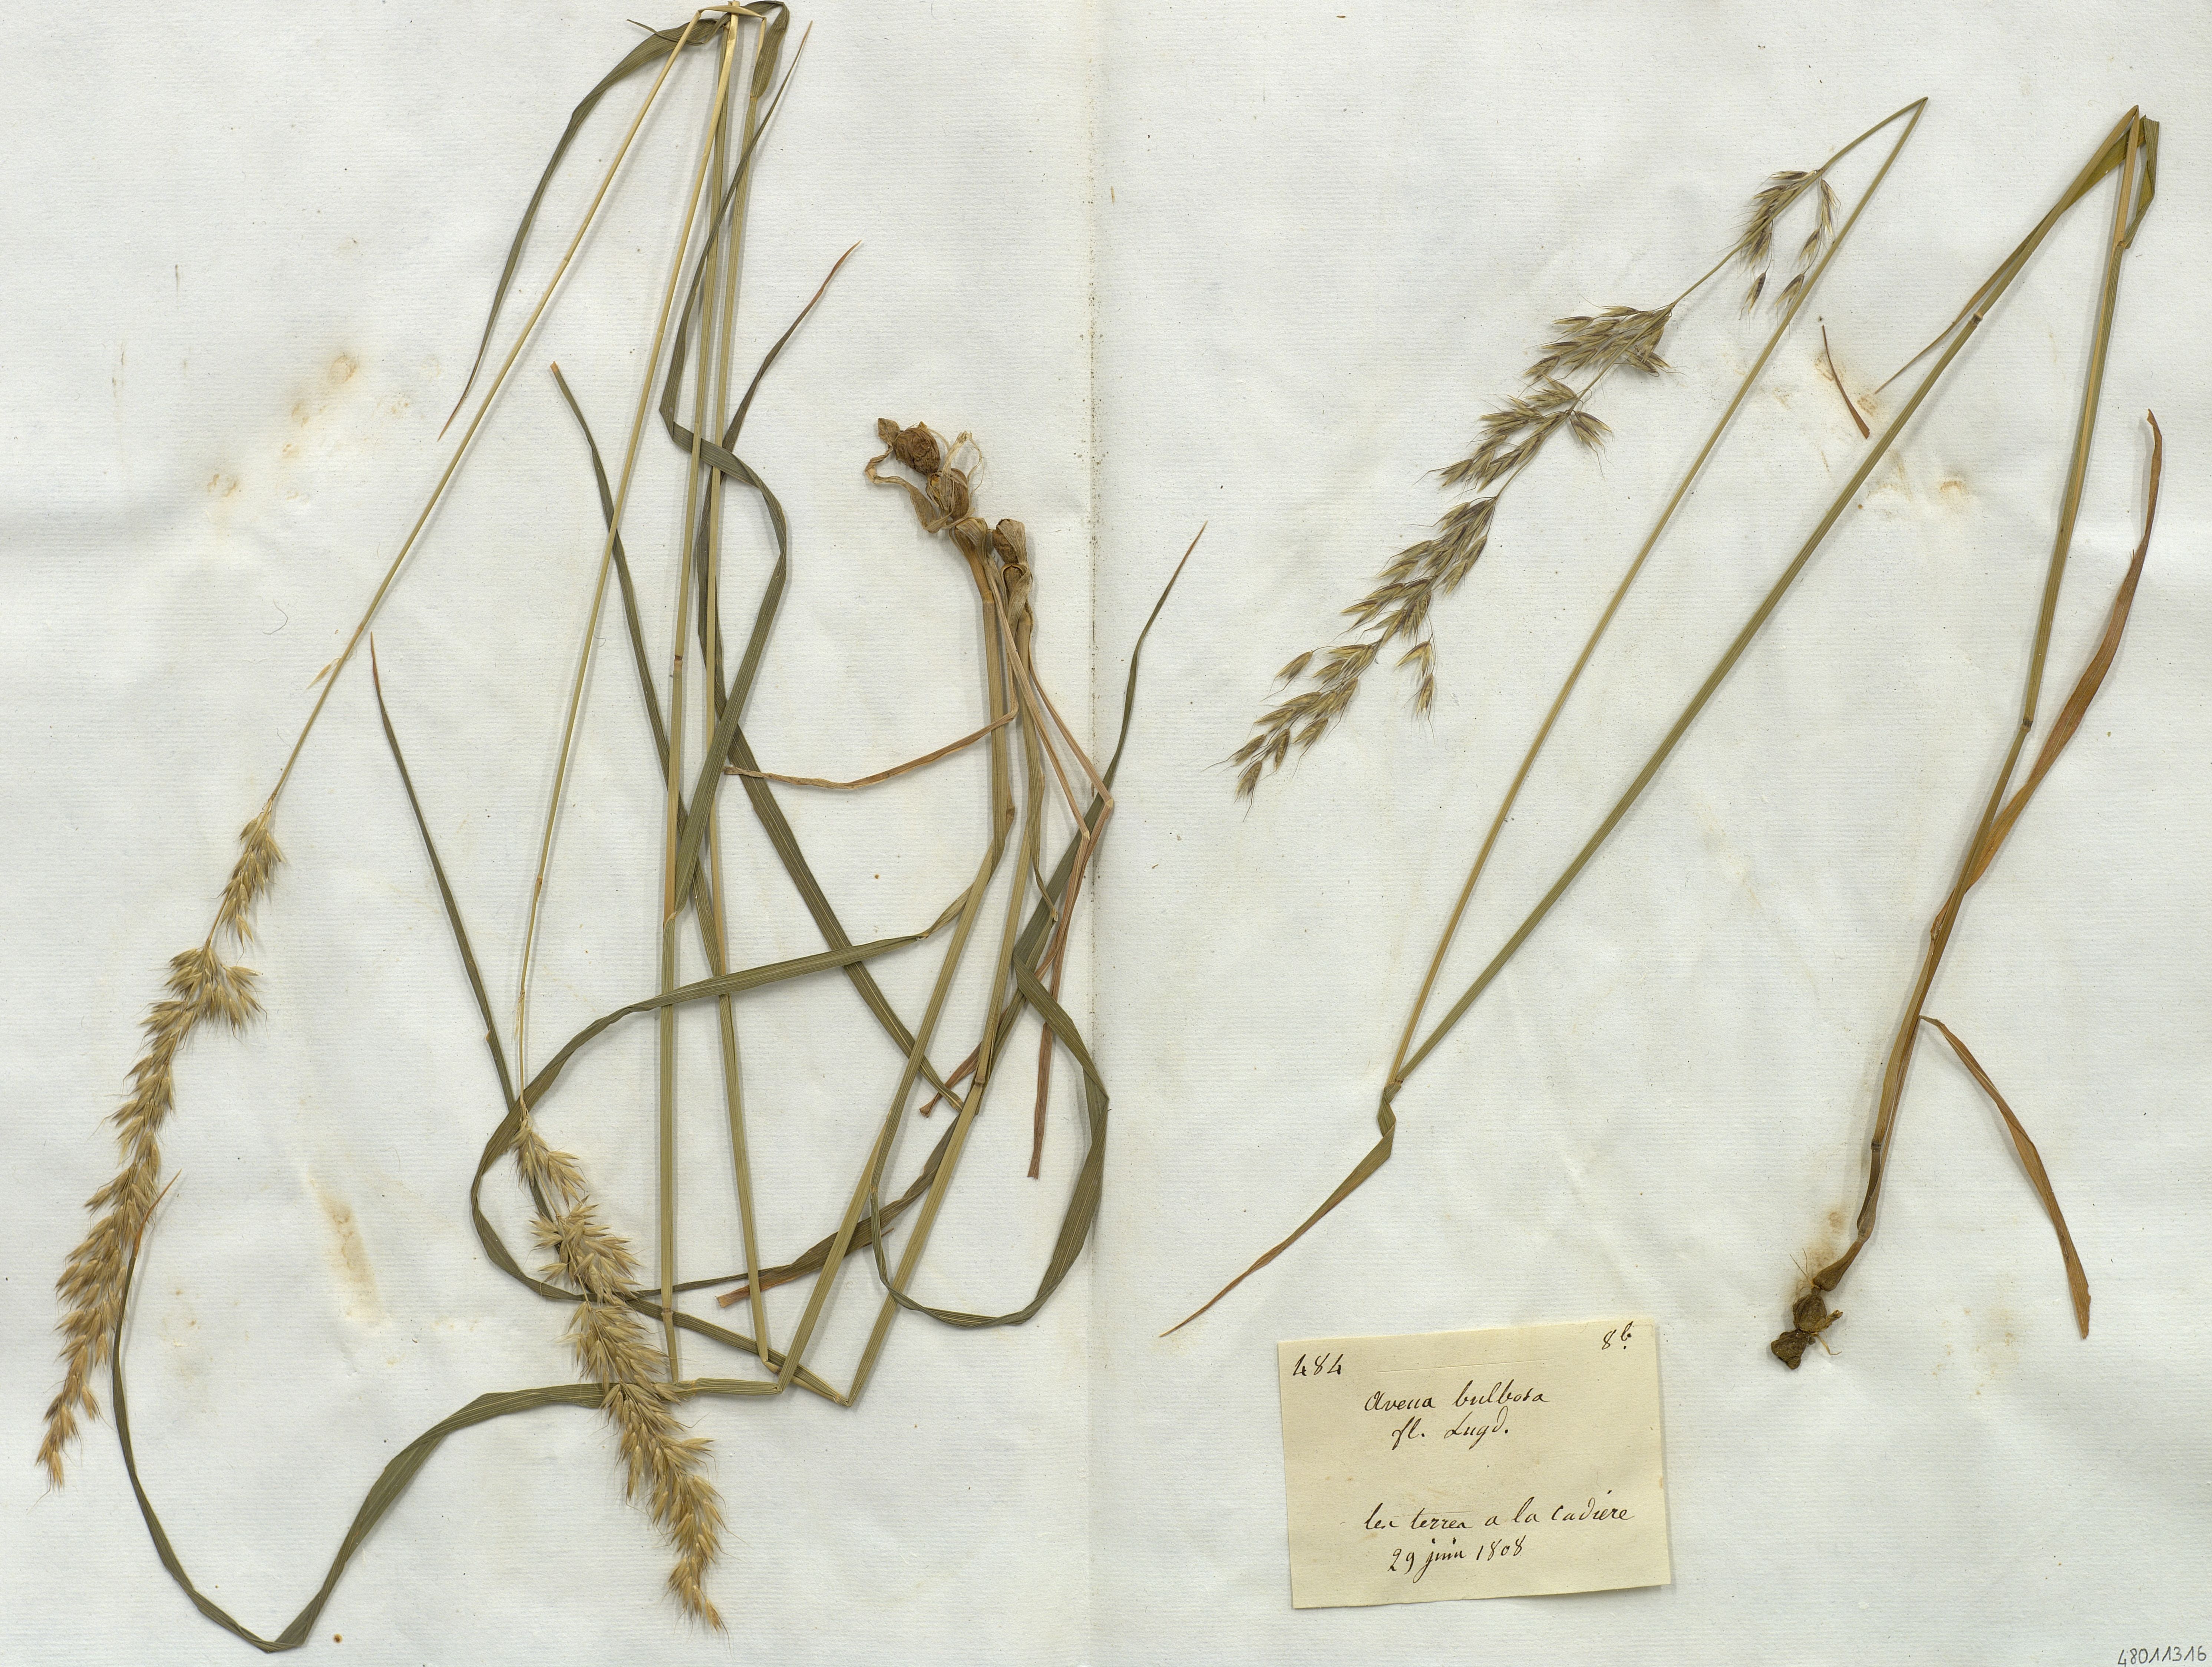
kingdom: Plantae
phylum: Tracheophyta
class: Liliopsida
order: Poales
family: Poaceae
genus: Arrhenatherum
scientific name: Arrhenatherum elatius
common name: Tall oatgrass
